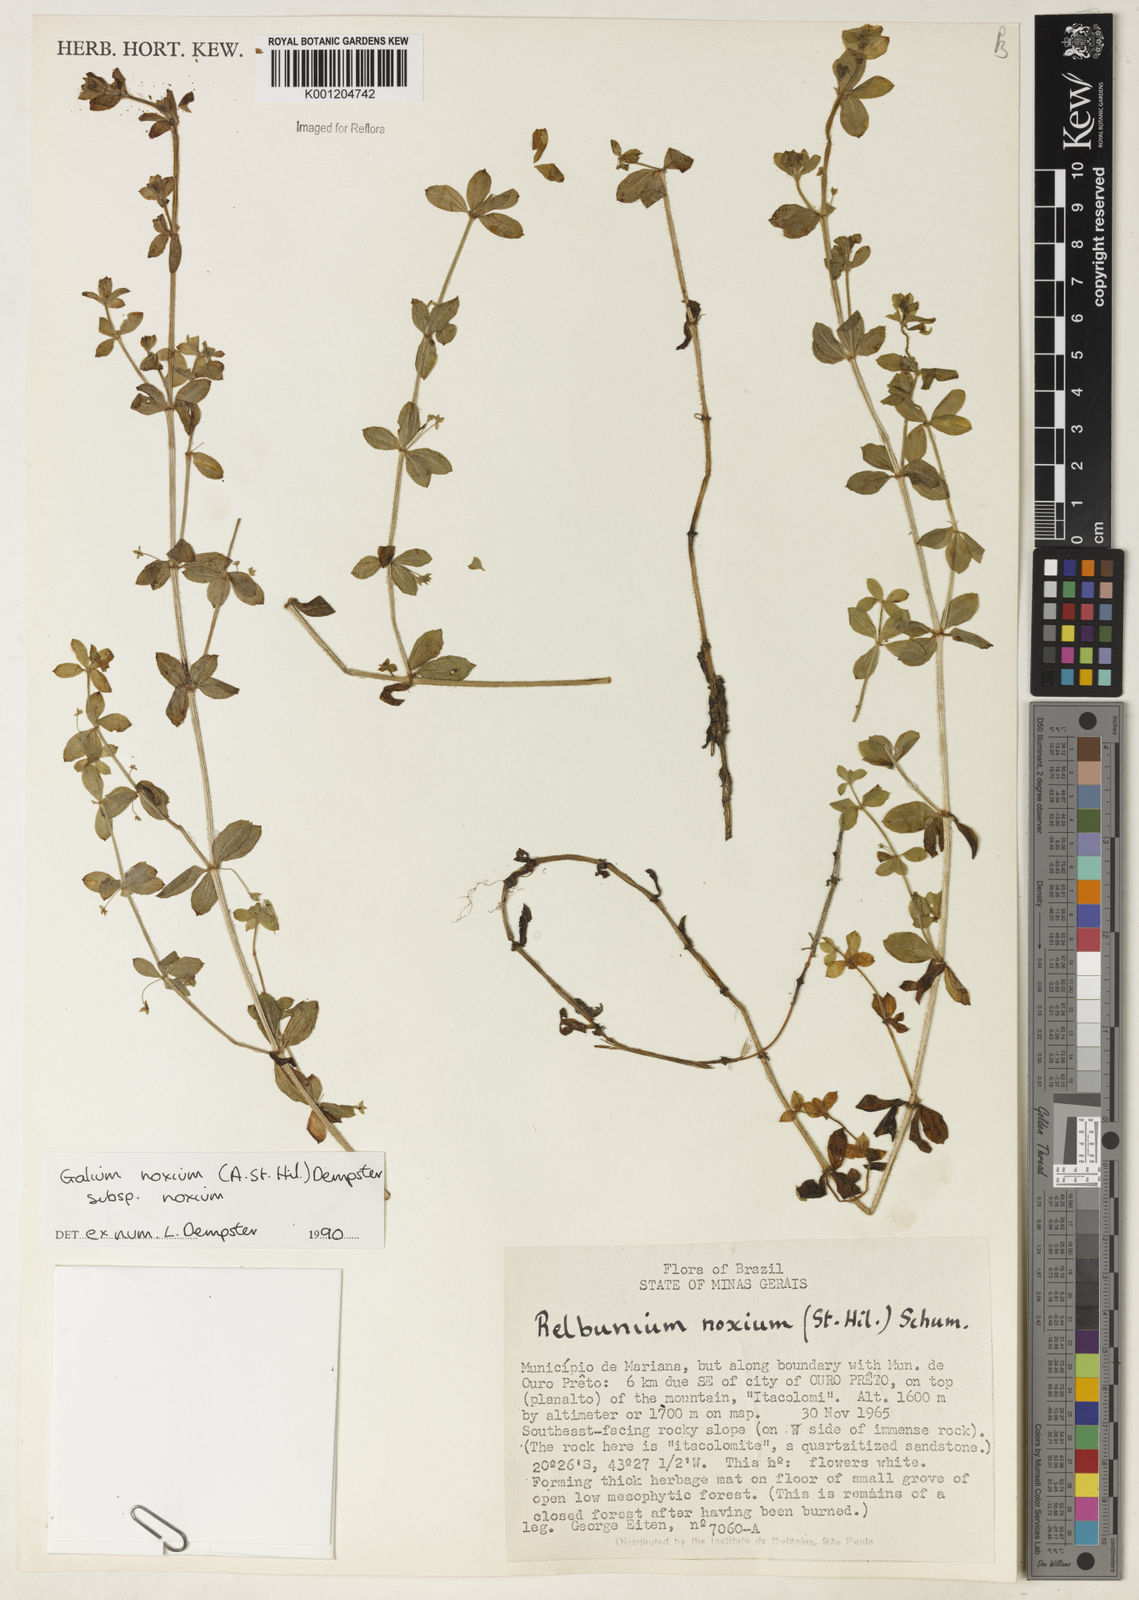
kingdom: Plantae
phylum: Tracheophyta
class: Magnoliopsida
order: Gentianales
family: Rubiaceae
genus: Galium
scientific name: Galium noxium
